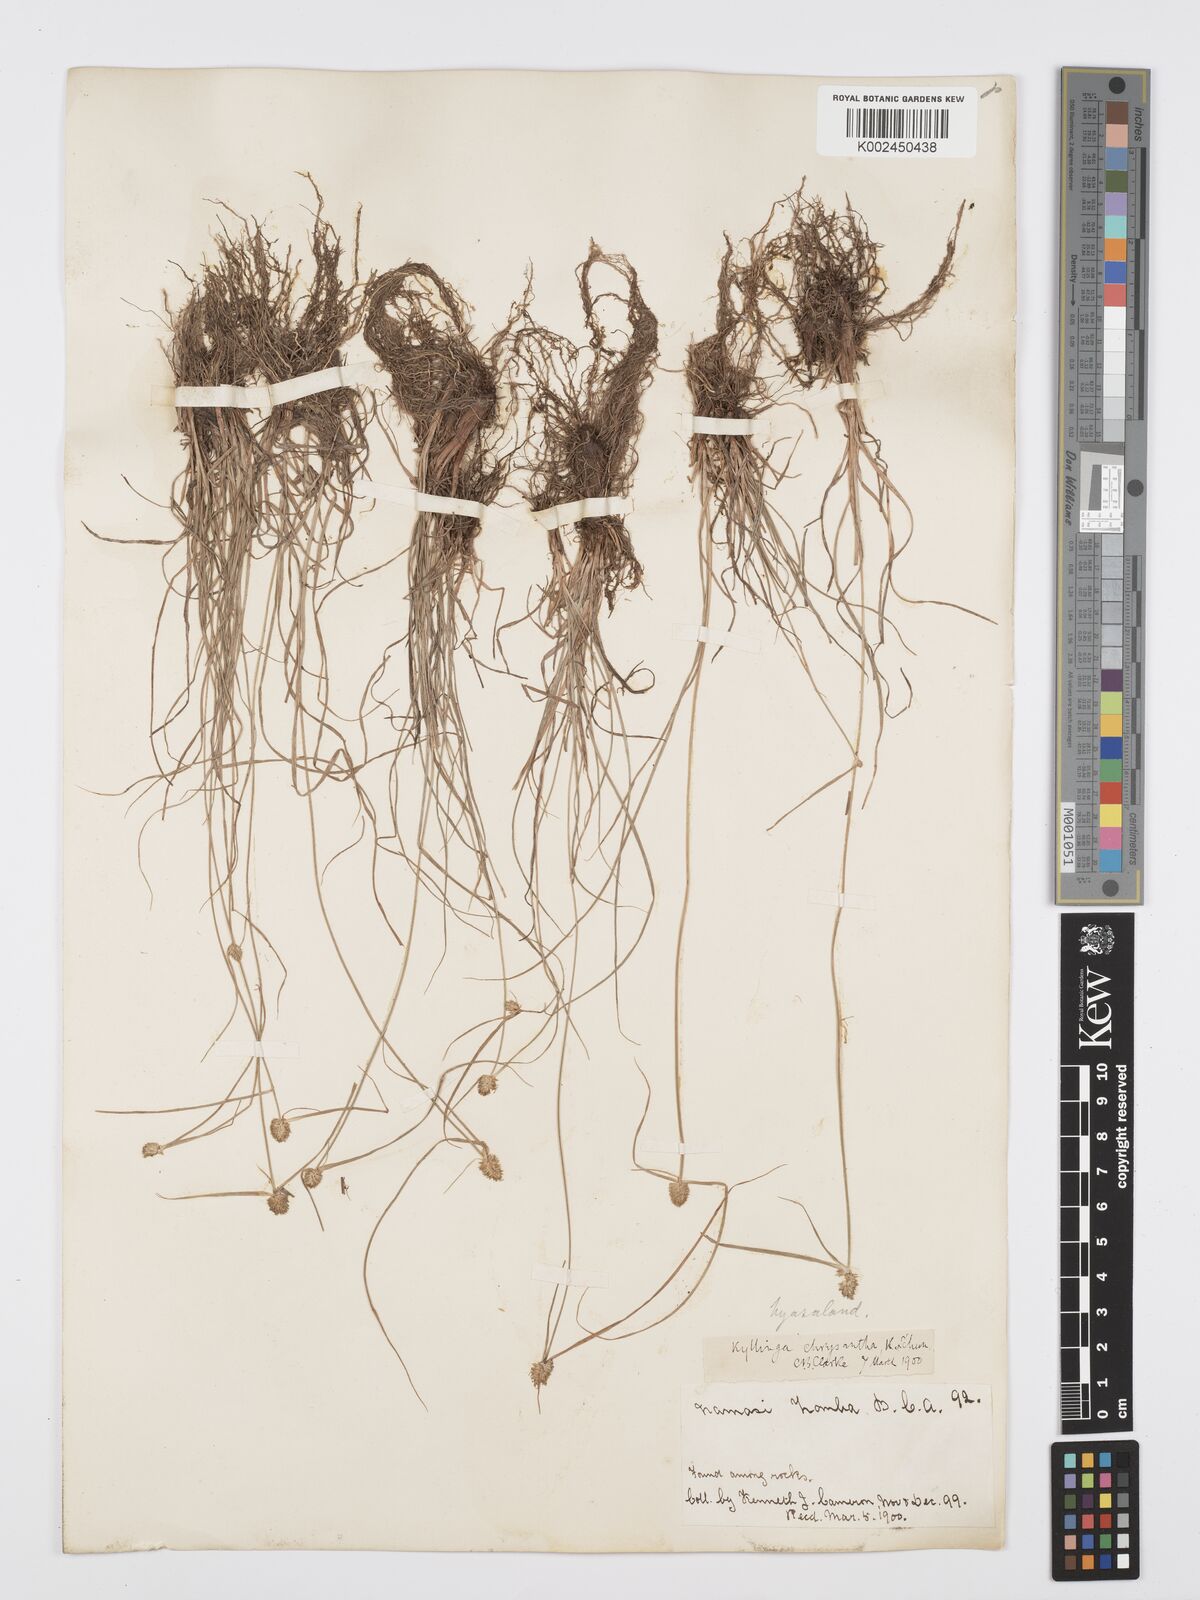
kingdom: Plantae
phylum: Tracheophyta
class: Liliopsida
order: Poales
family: Cyperaceae
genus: Cyperus
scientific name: Cyperus
